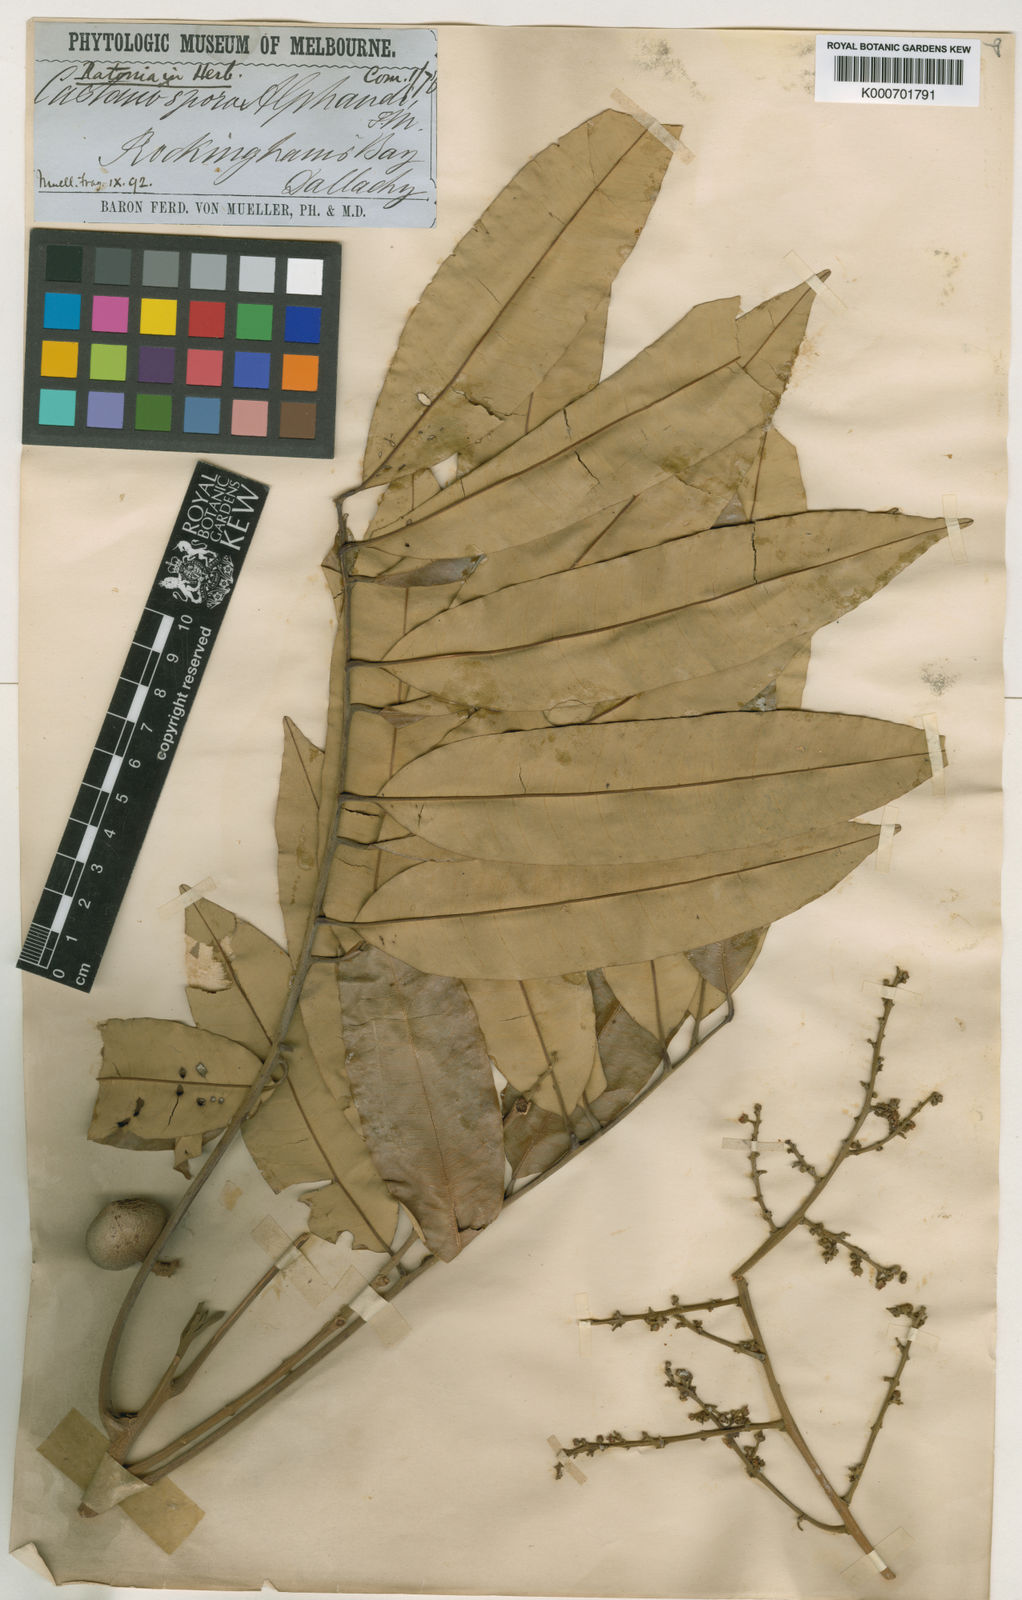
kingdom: Plantae
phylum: Tracheophyta
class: Magnoliopsida
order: Sapindales
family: Sapindaceae
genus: Castanospora
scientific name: Castanospora alphandii
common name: Brown-tamarind
